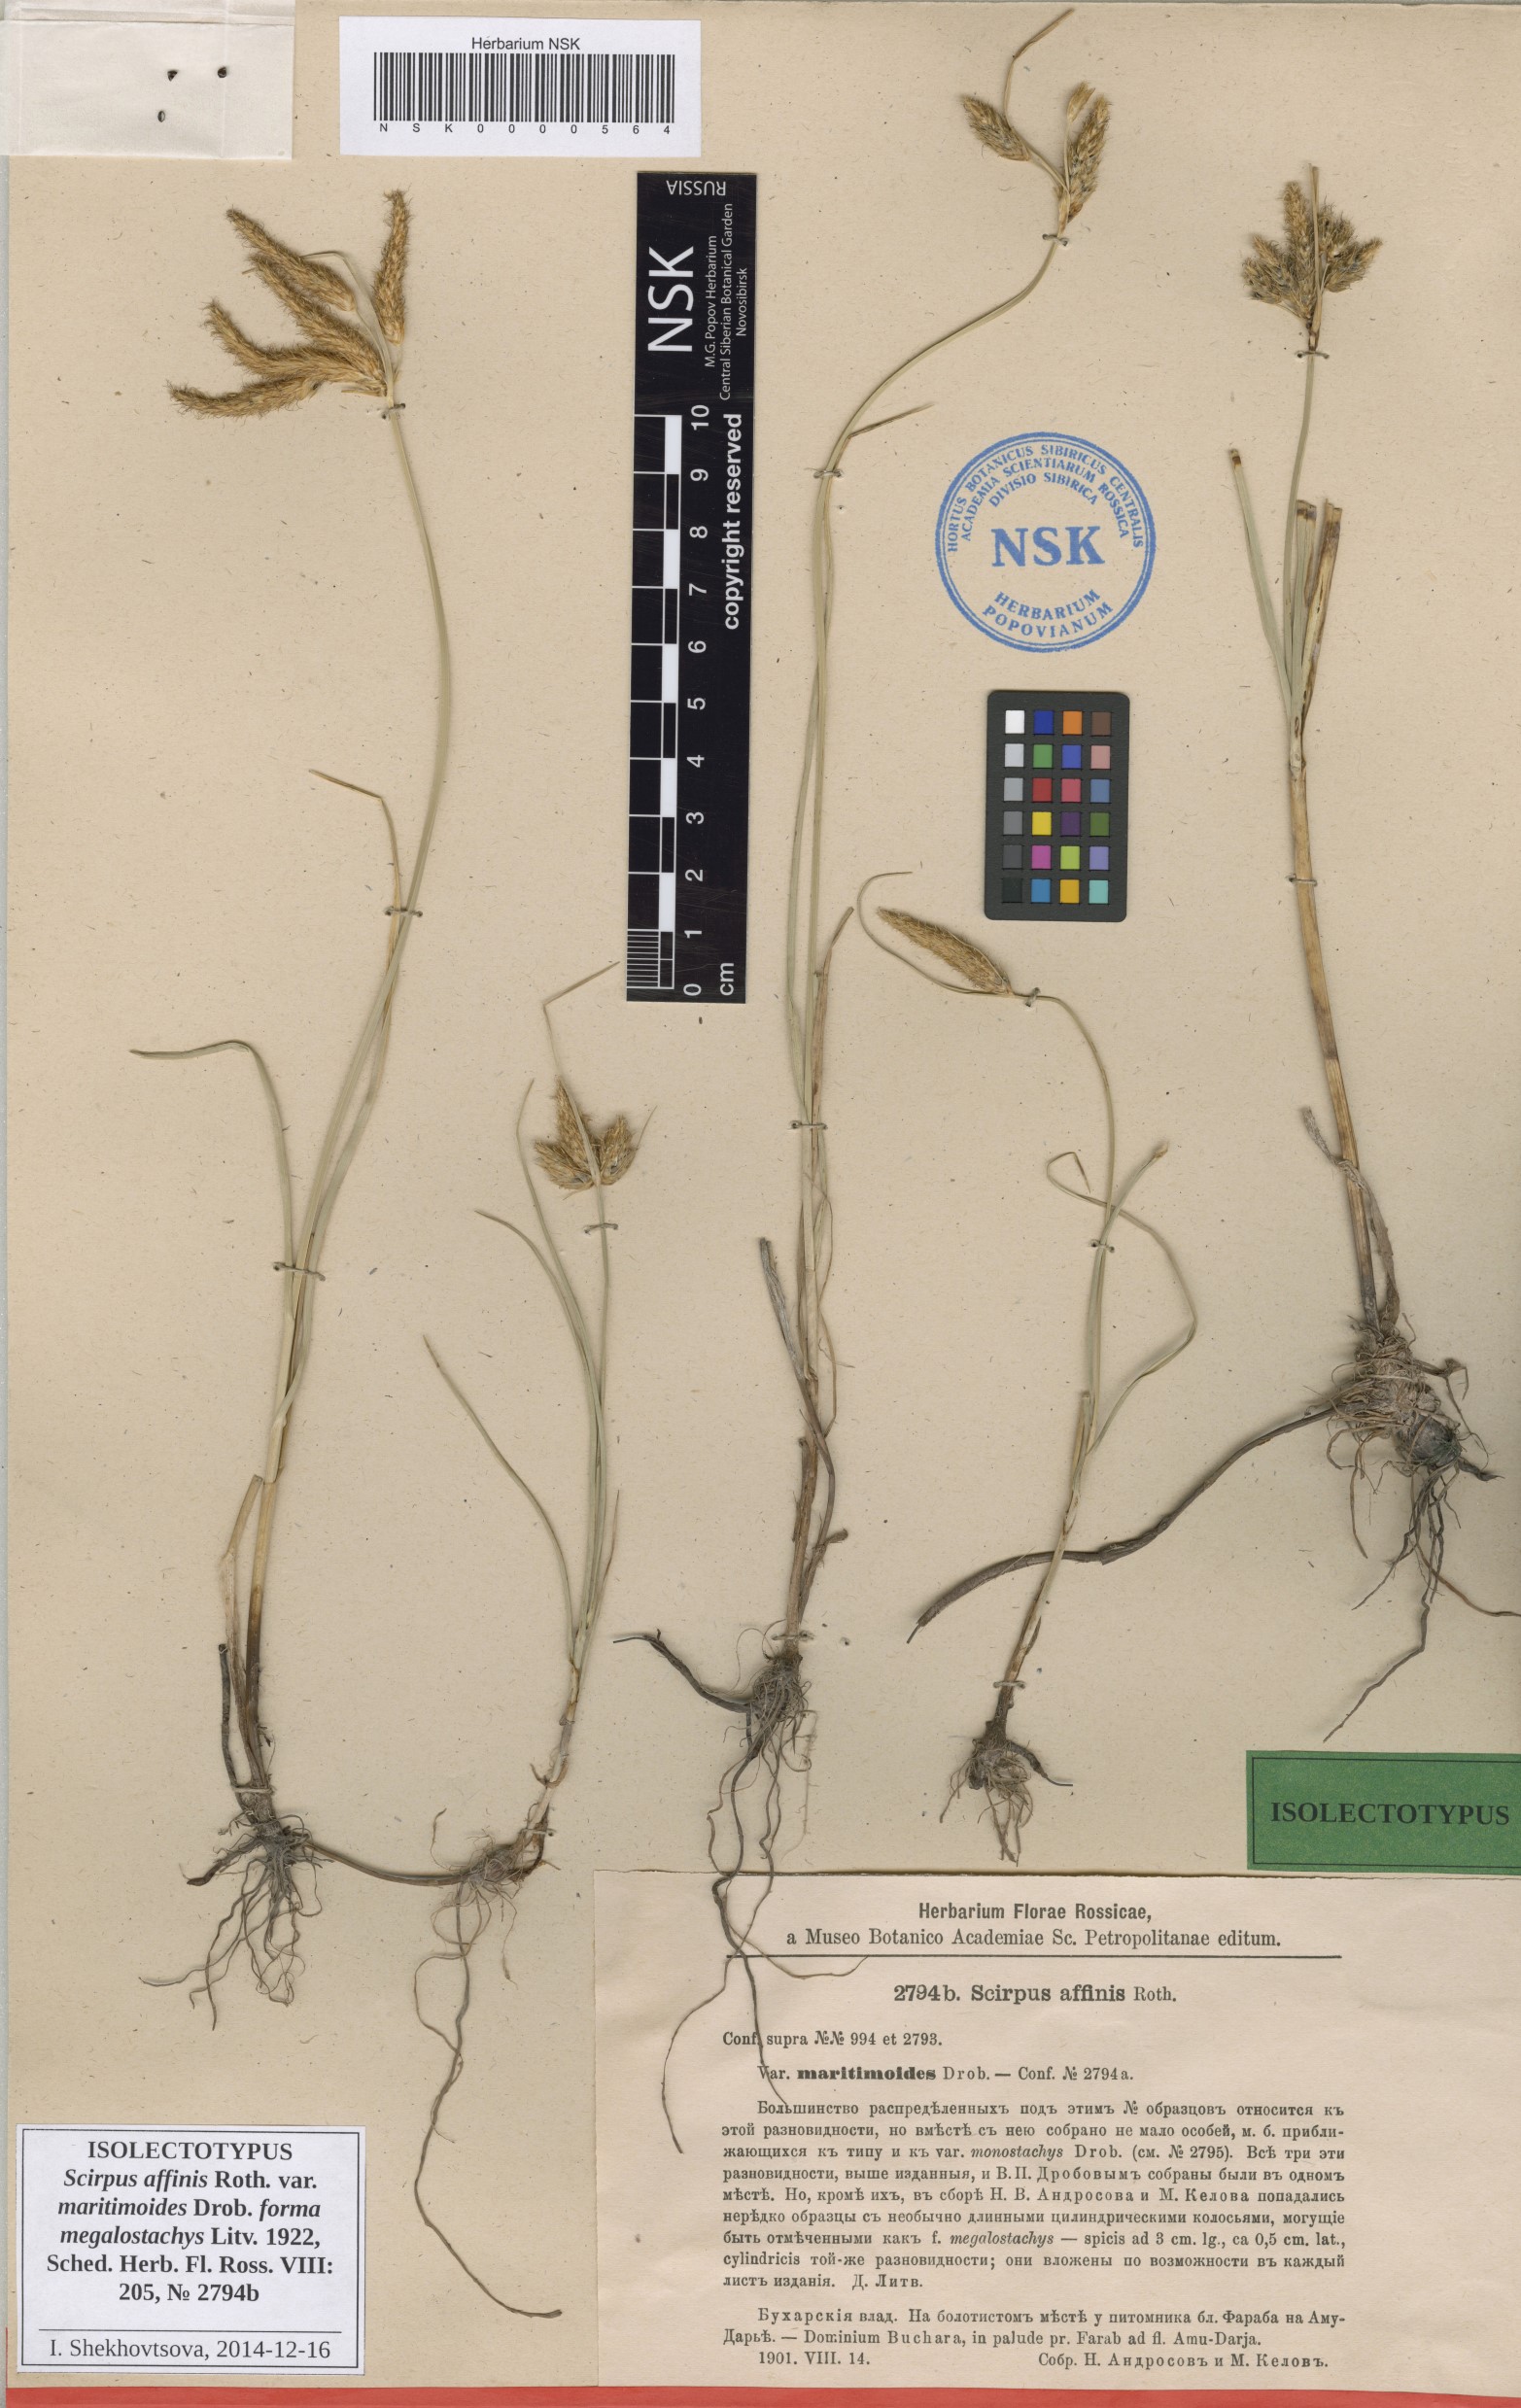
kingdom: Plantae
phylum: Tracheophyta
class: Liliopsida
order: Poales
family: Cyperaceae
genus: Bolboschoenus
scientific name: Bolboschoenus maritimus
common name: Sea club-rush
